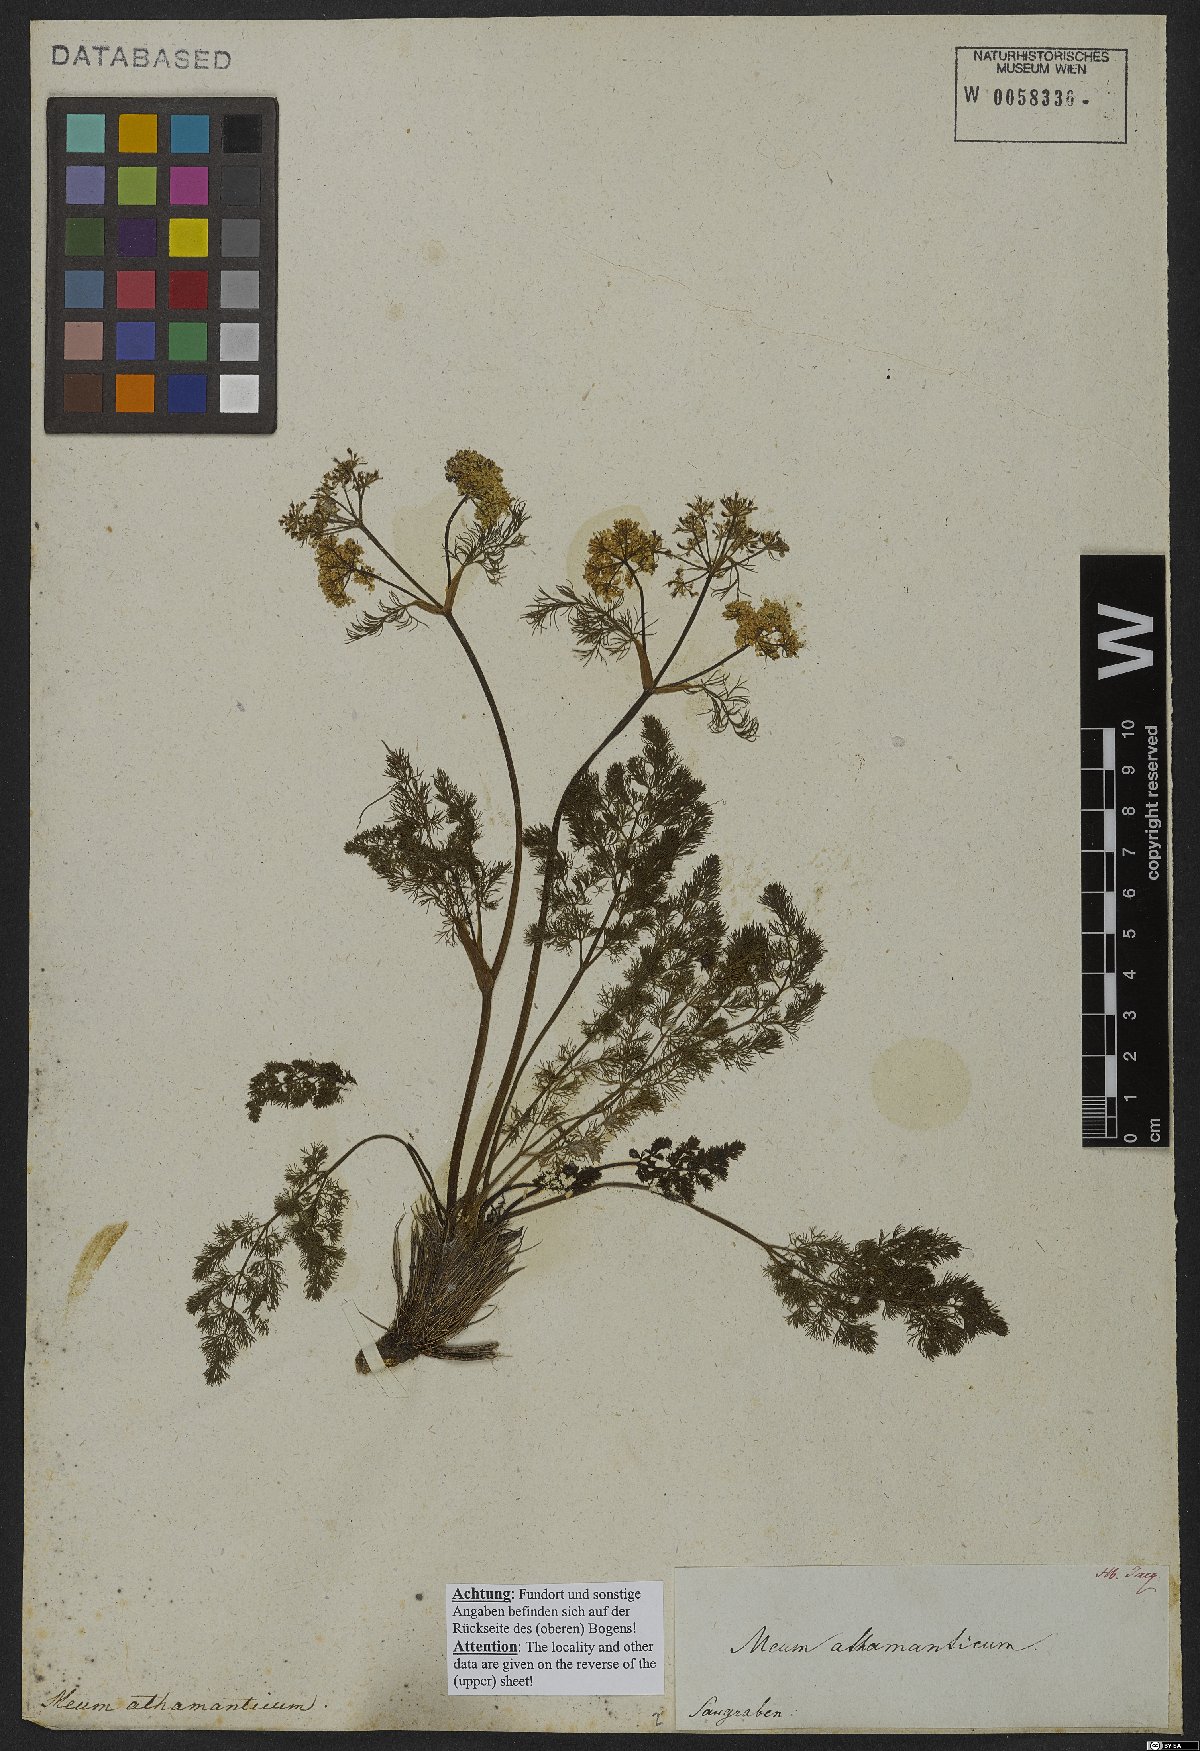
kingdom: Plantae
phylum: Tracheophyta
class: Magnoliopsida
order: Apiales
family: Apiaceae
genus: Meum
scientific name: Meum athamanticum
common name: Spignel
